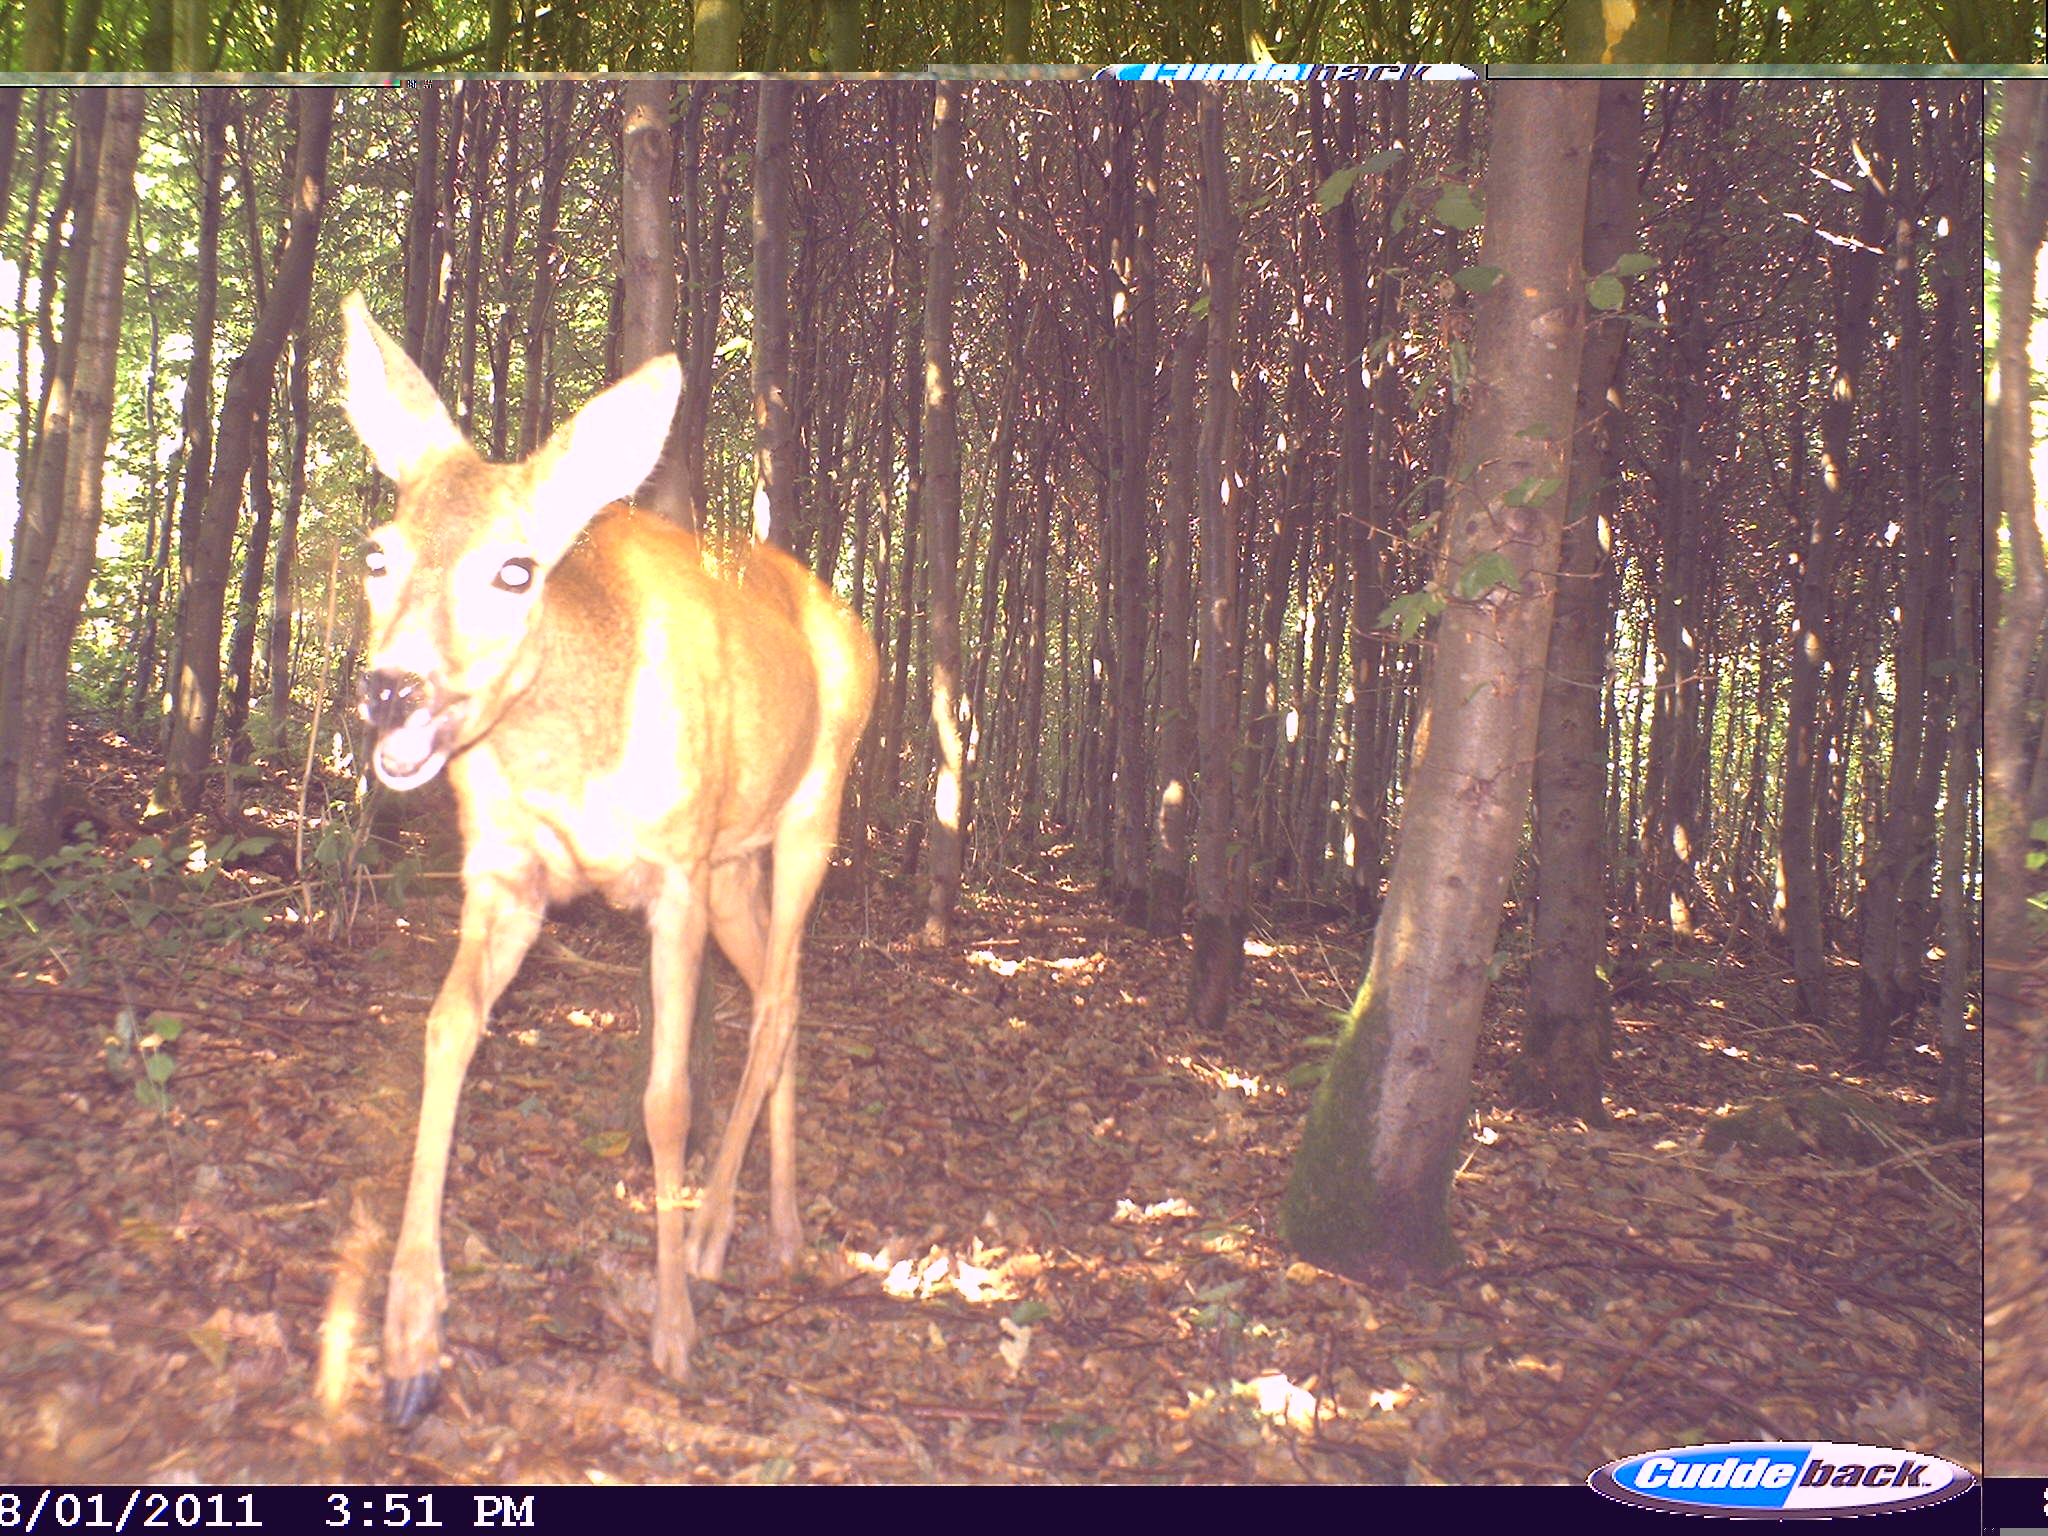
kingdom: Animalia
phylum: Chordata
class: Mammalia
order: Artiodactyla
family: Cervidae
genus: Capreolus
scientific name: Capreolus capreolus
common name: Western roe deer
